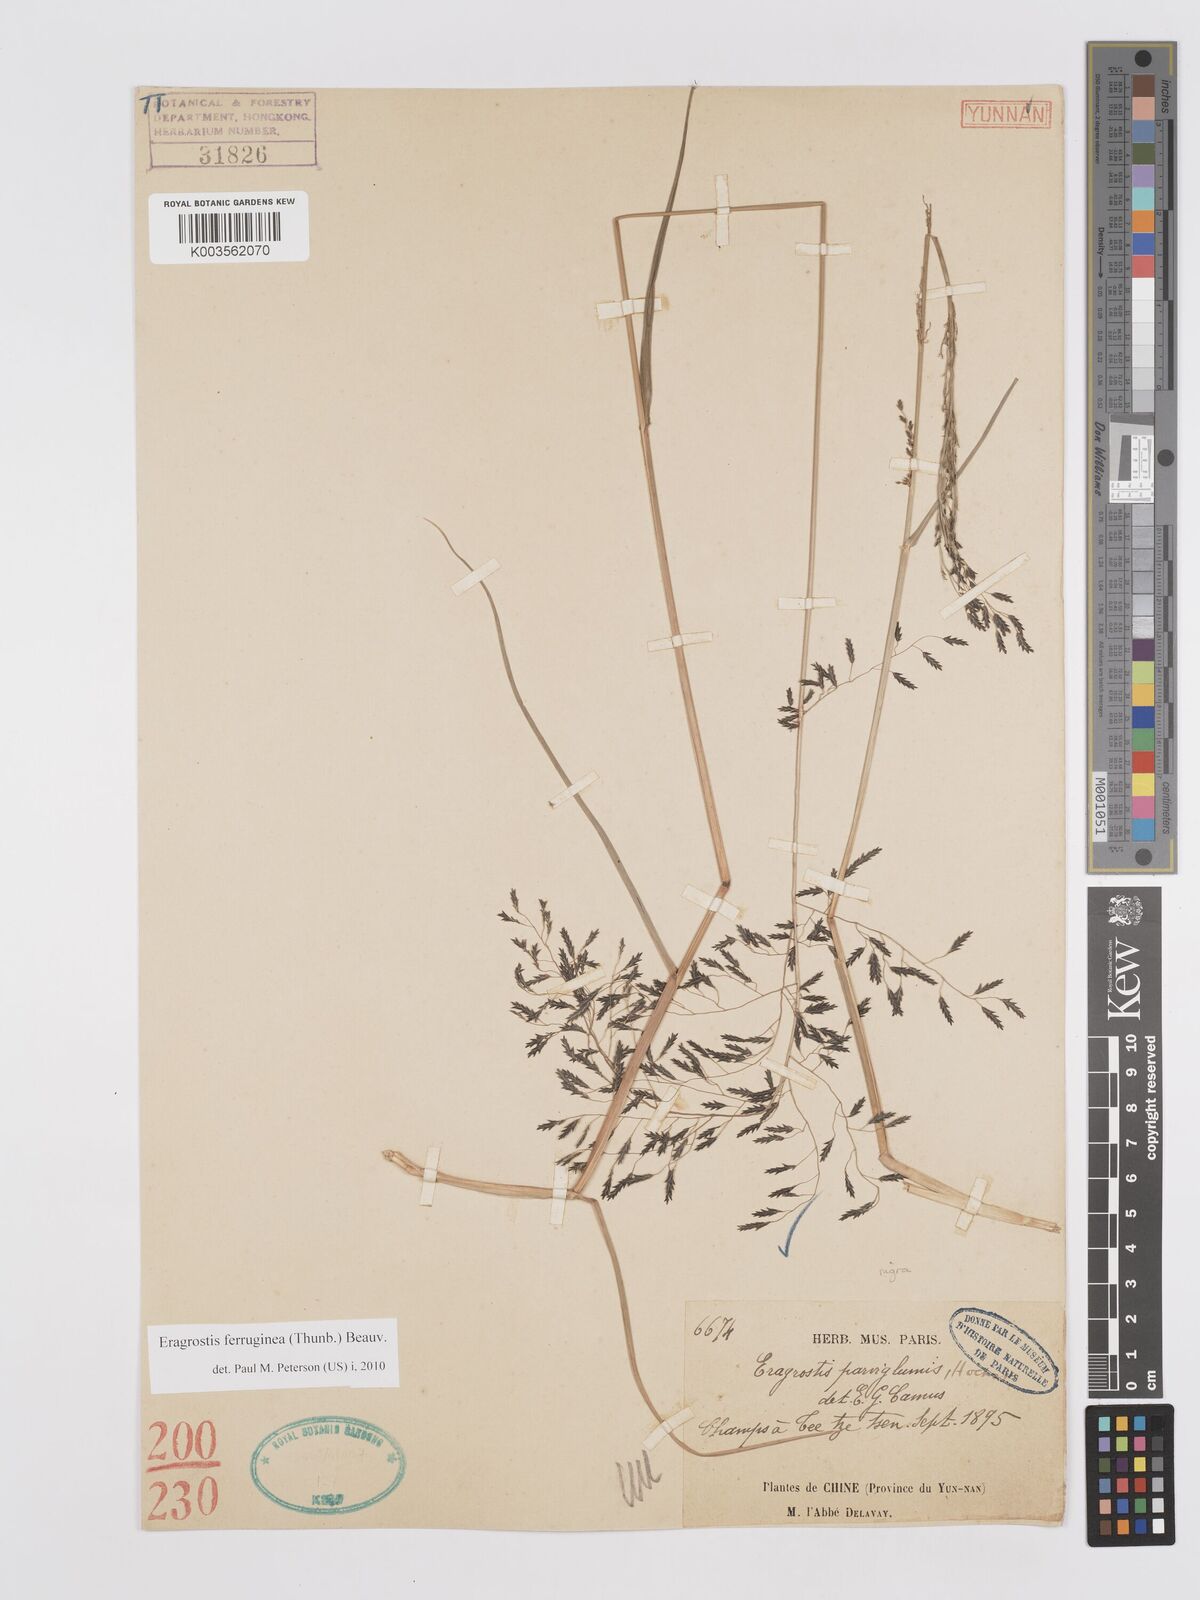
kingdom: Plantae
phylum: Tracheophyta
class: Liliopsida
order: Poales
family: Poaceae
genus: Eragrostis
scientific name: Eragrostis ferruginea
